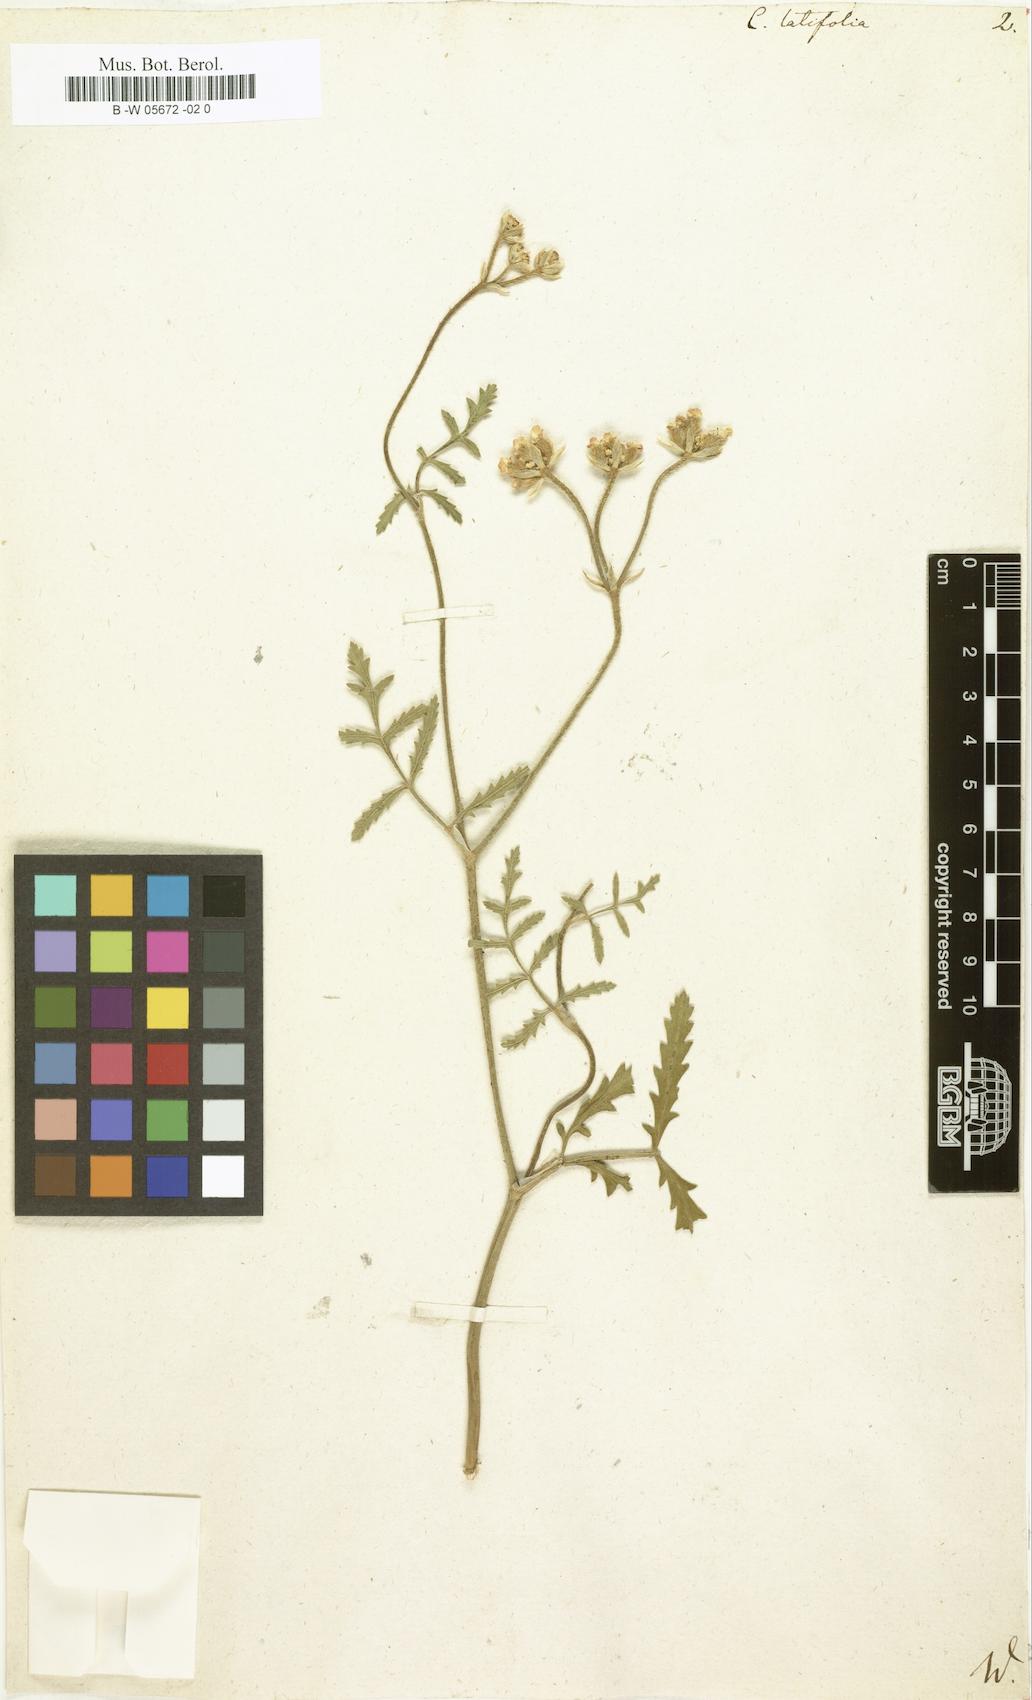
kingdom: Plantae
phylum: Tracheophyta
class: Magnoliopsida
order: Apiales
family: Apiaceae
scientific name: Apiaceae
